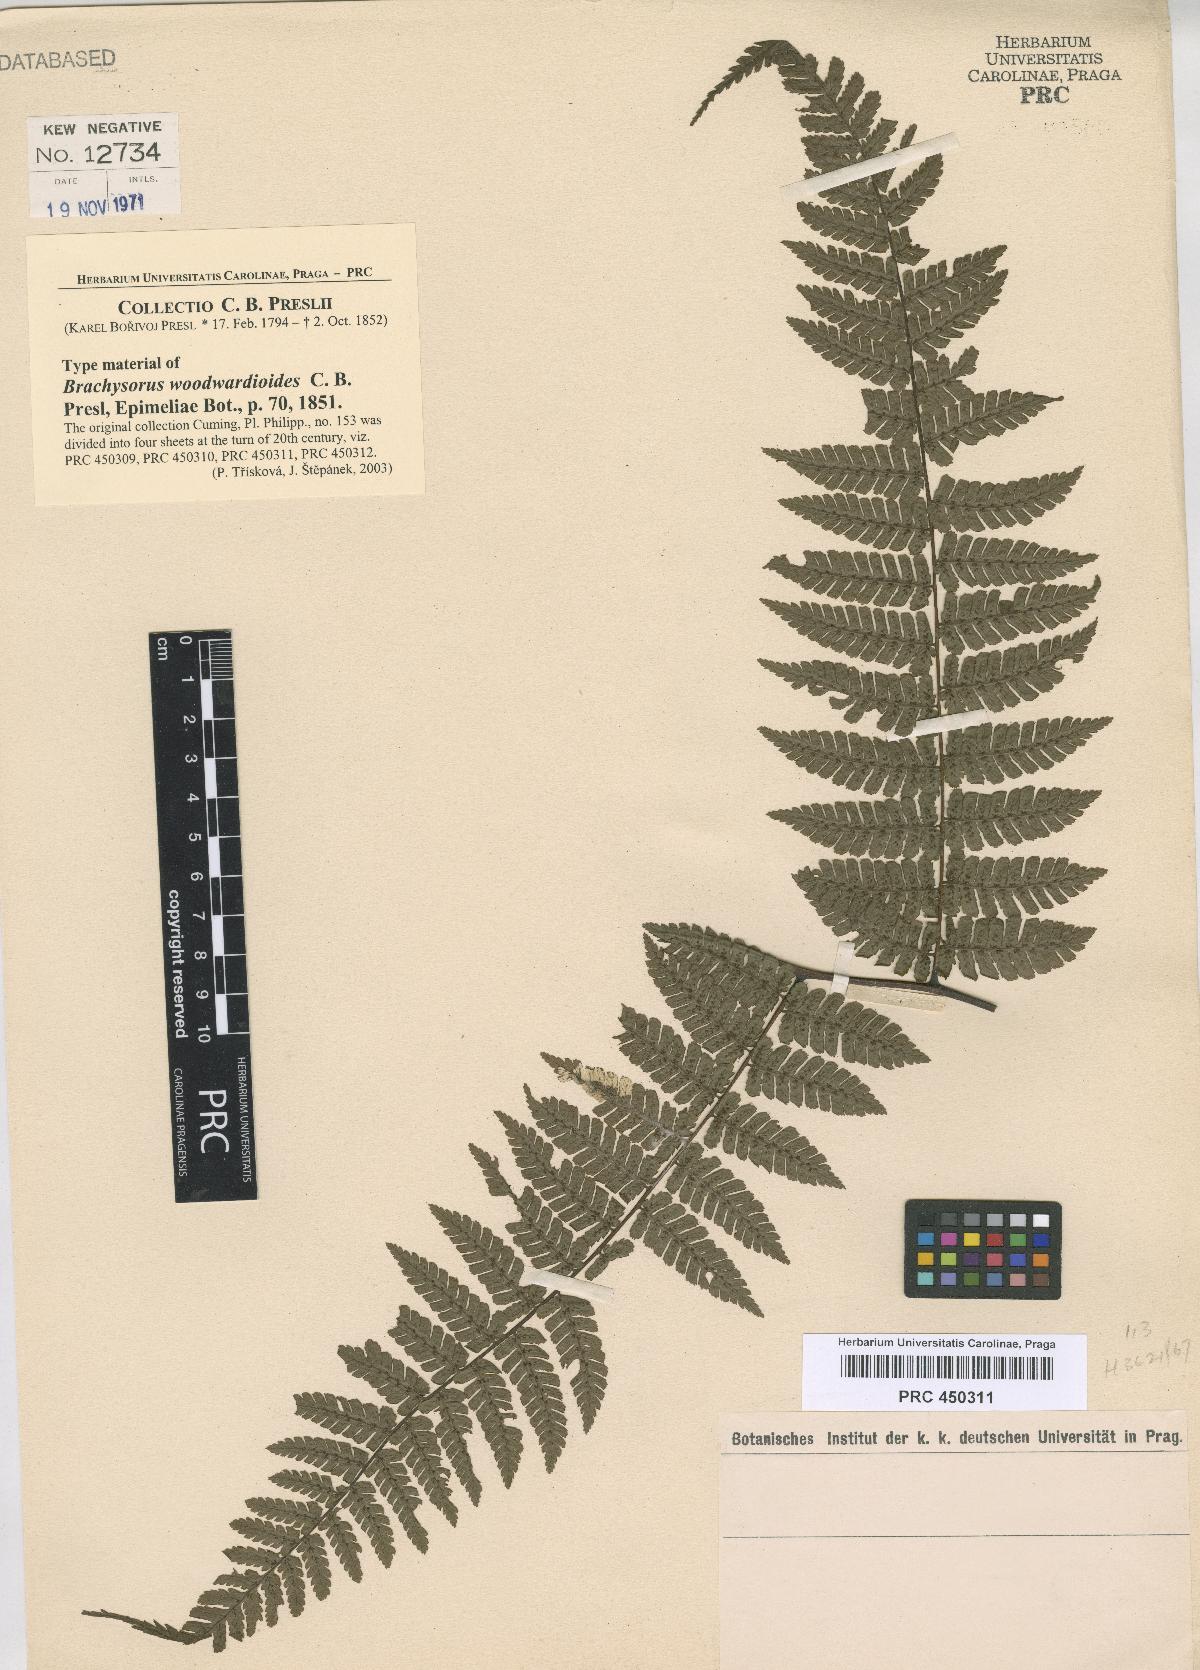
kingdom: Plantae
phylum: Tracheophyta
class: Polypodiopsida
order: Polypodiales
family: Athyriaceae
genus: Diplazium
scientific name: Diplazium woodwardioides
